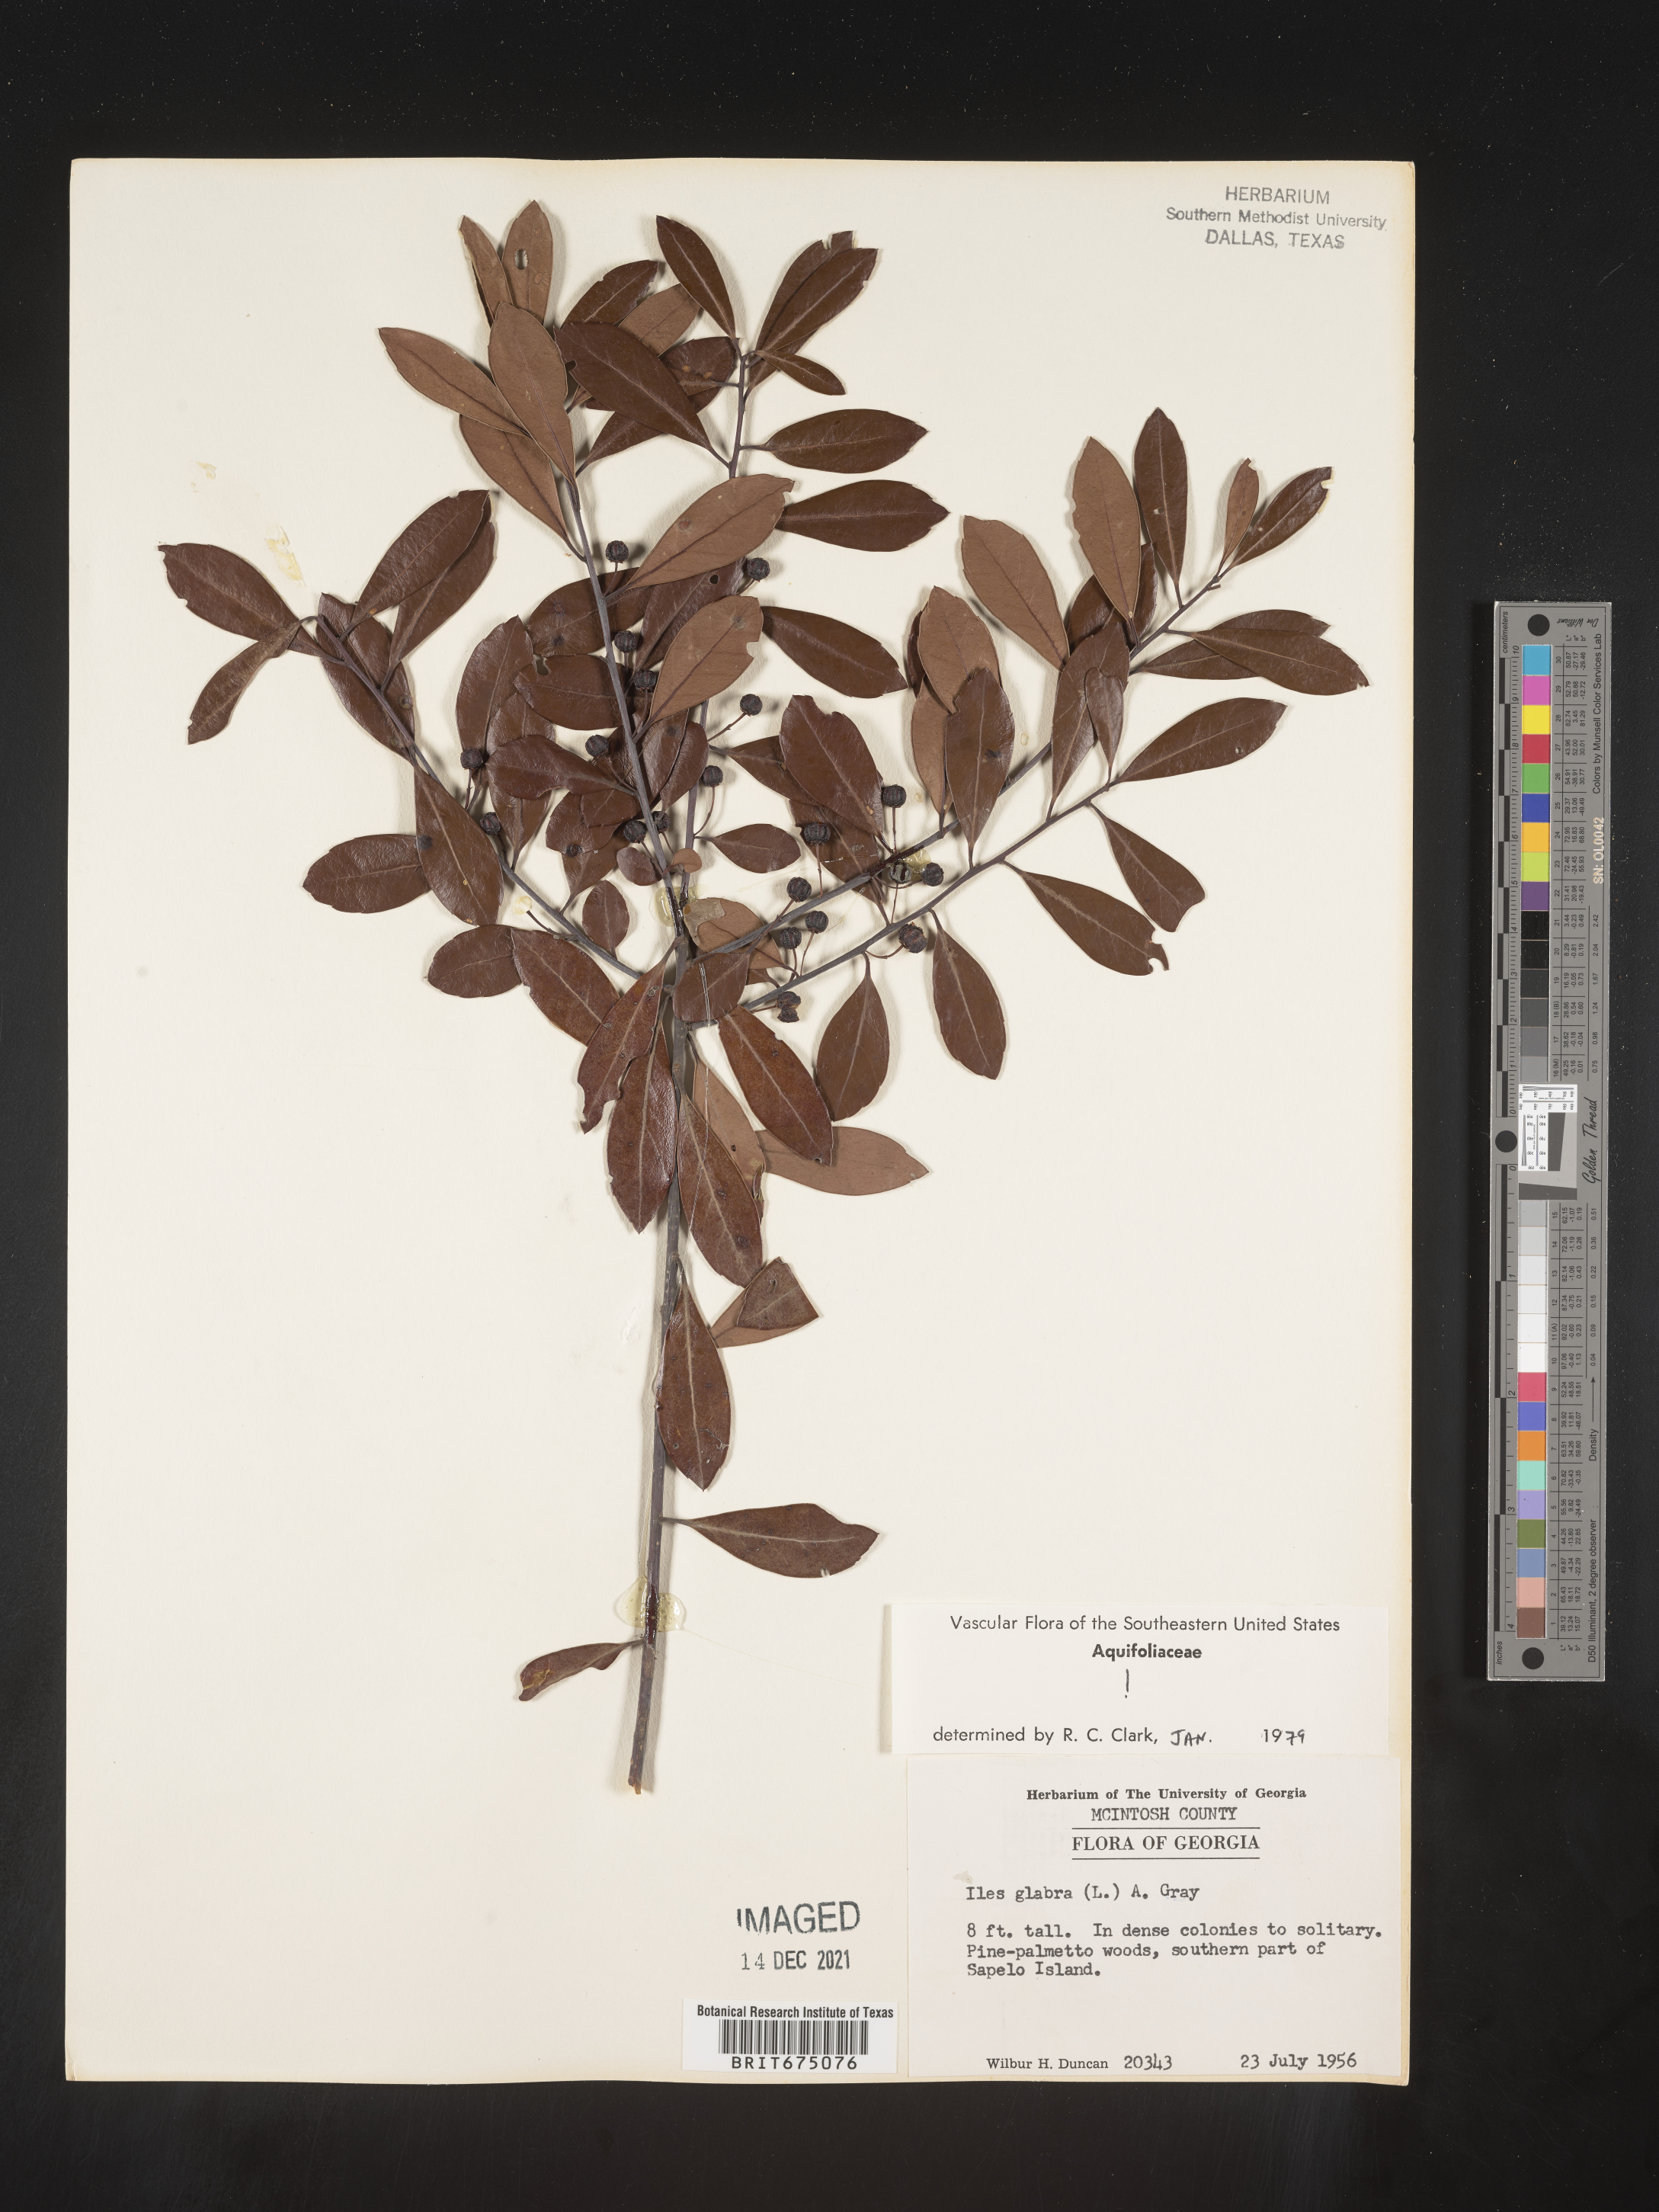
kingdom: Plantae
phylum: Tracheophyta
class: Magnoliopsida
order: Aquifoliales
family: Aquifoliaceae
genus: Ilex
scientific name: Ilex glabra
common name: Bitter gallberry
